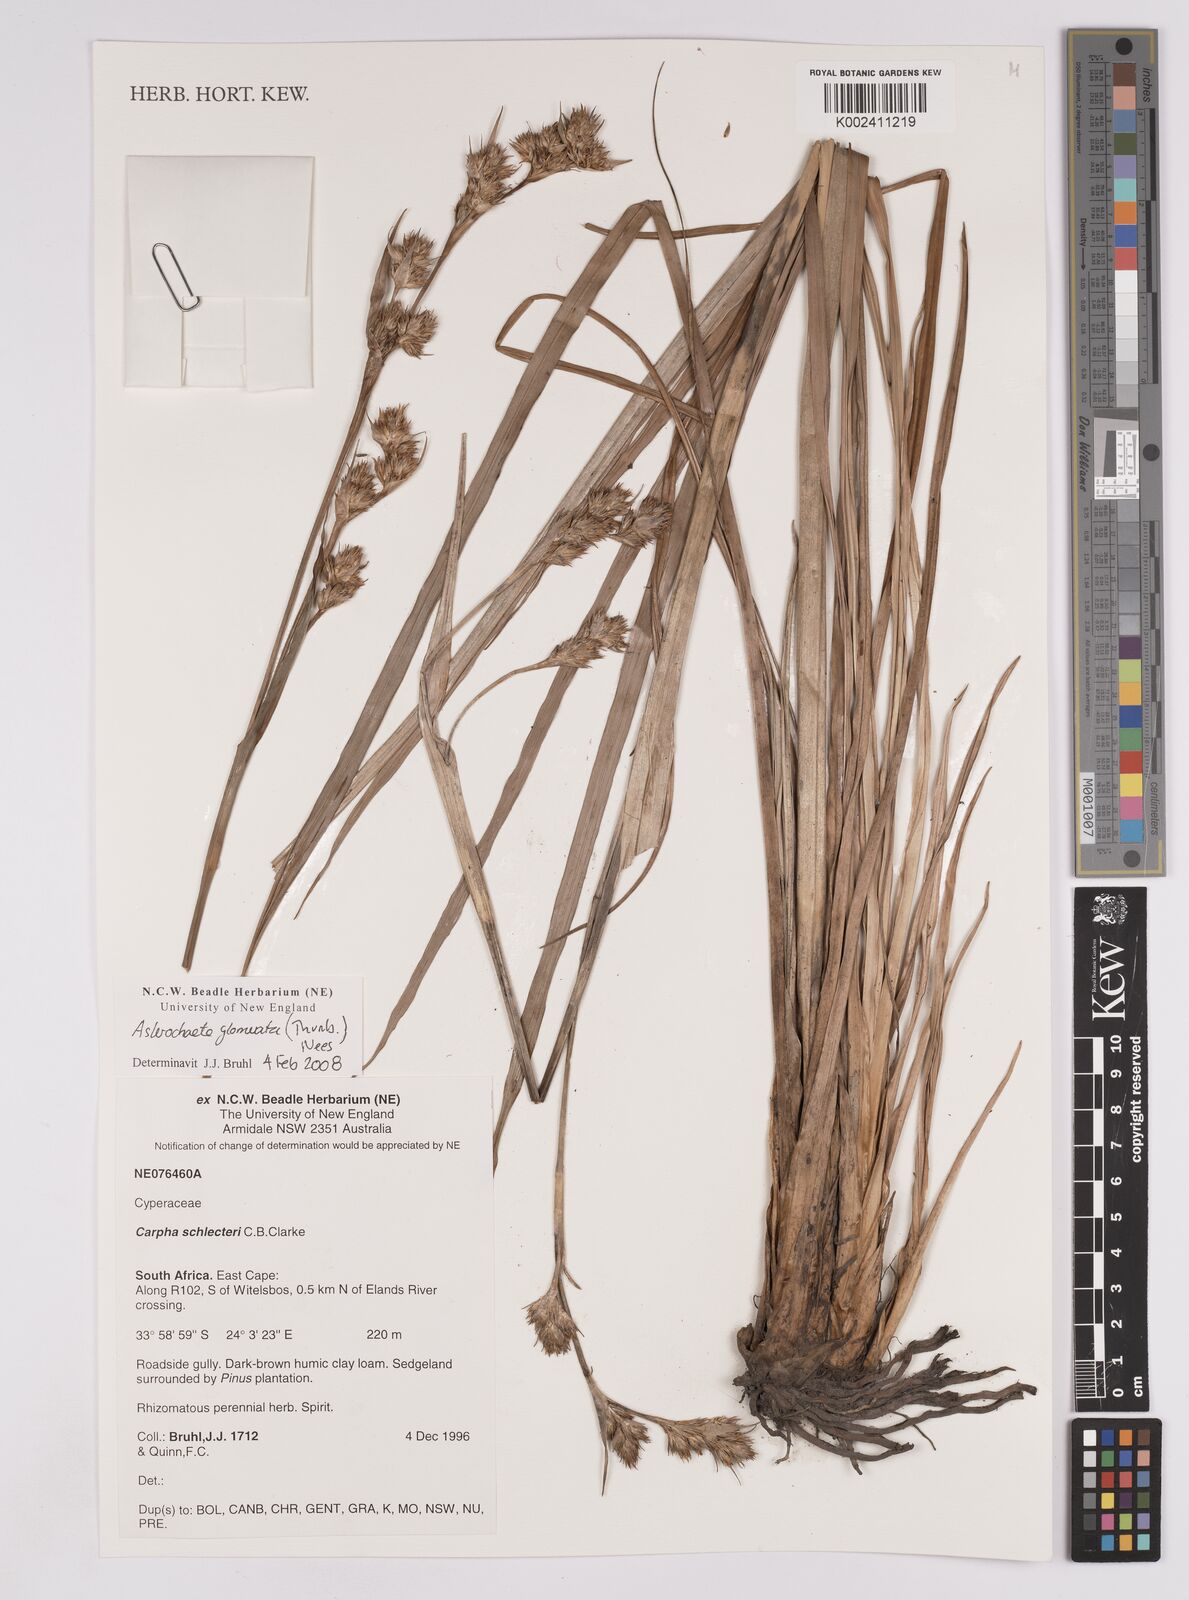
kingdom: Plantae
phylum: Tracheophyta
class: Liliopsida
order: Poales
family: Cyperaceae
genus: Carpha
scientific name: Carpha glomerata
